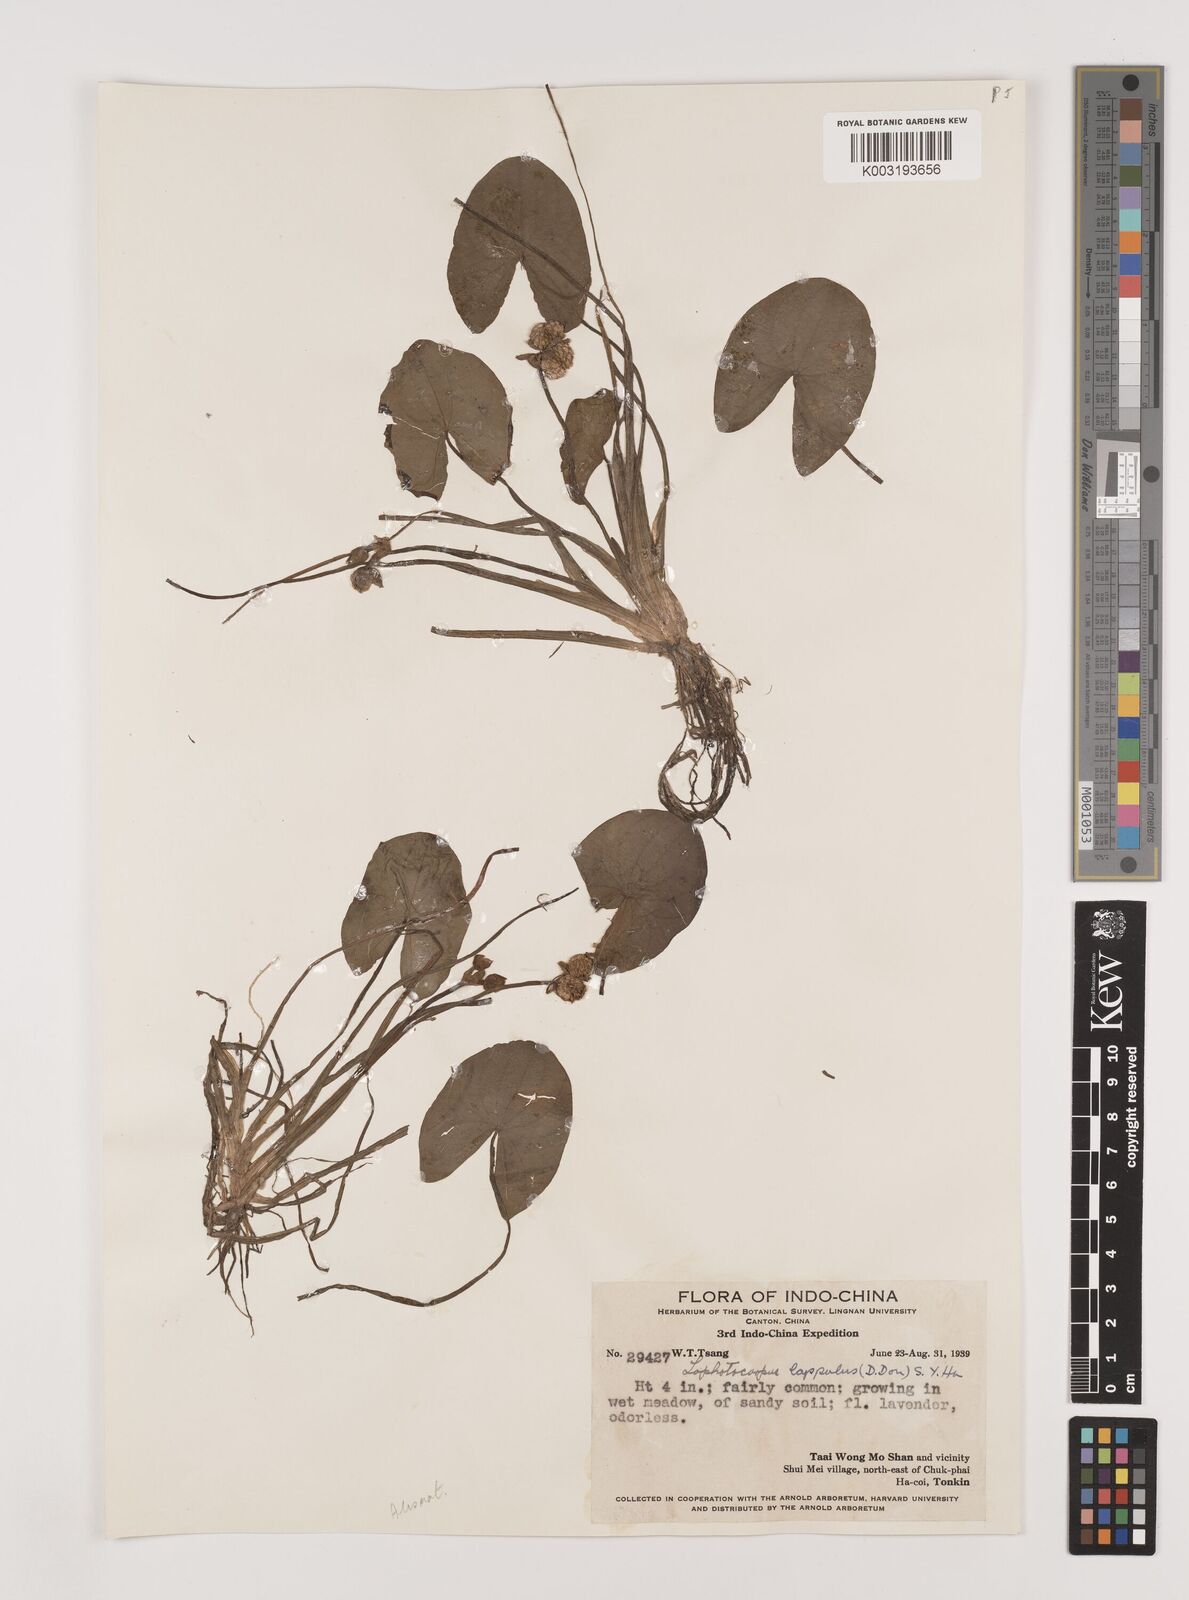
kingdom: Plantae
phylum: Tracheophyta
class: Liliopsida
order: Alismatales
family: Alismataceae
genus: Sagittaria
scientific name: Sagittaria guayanensis
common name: Guyanese arrowhead
